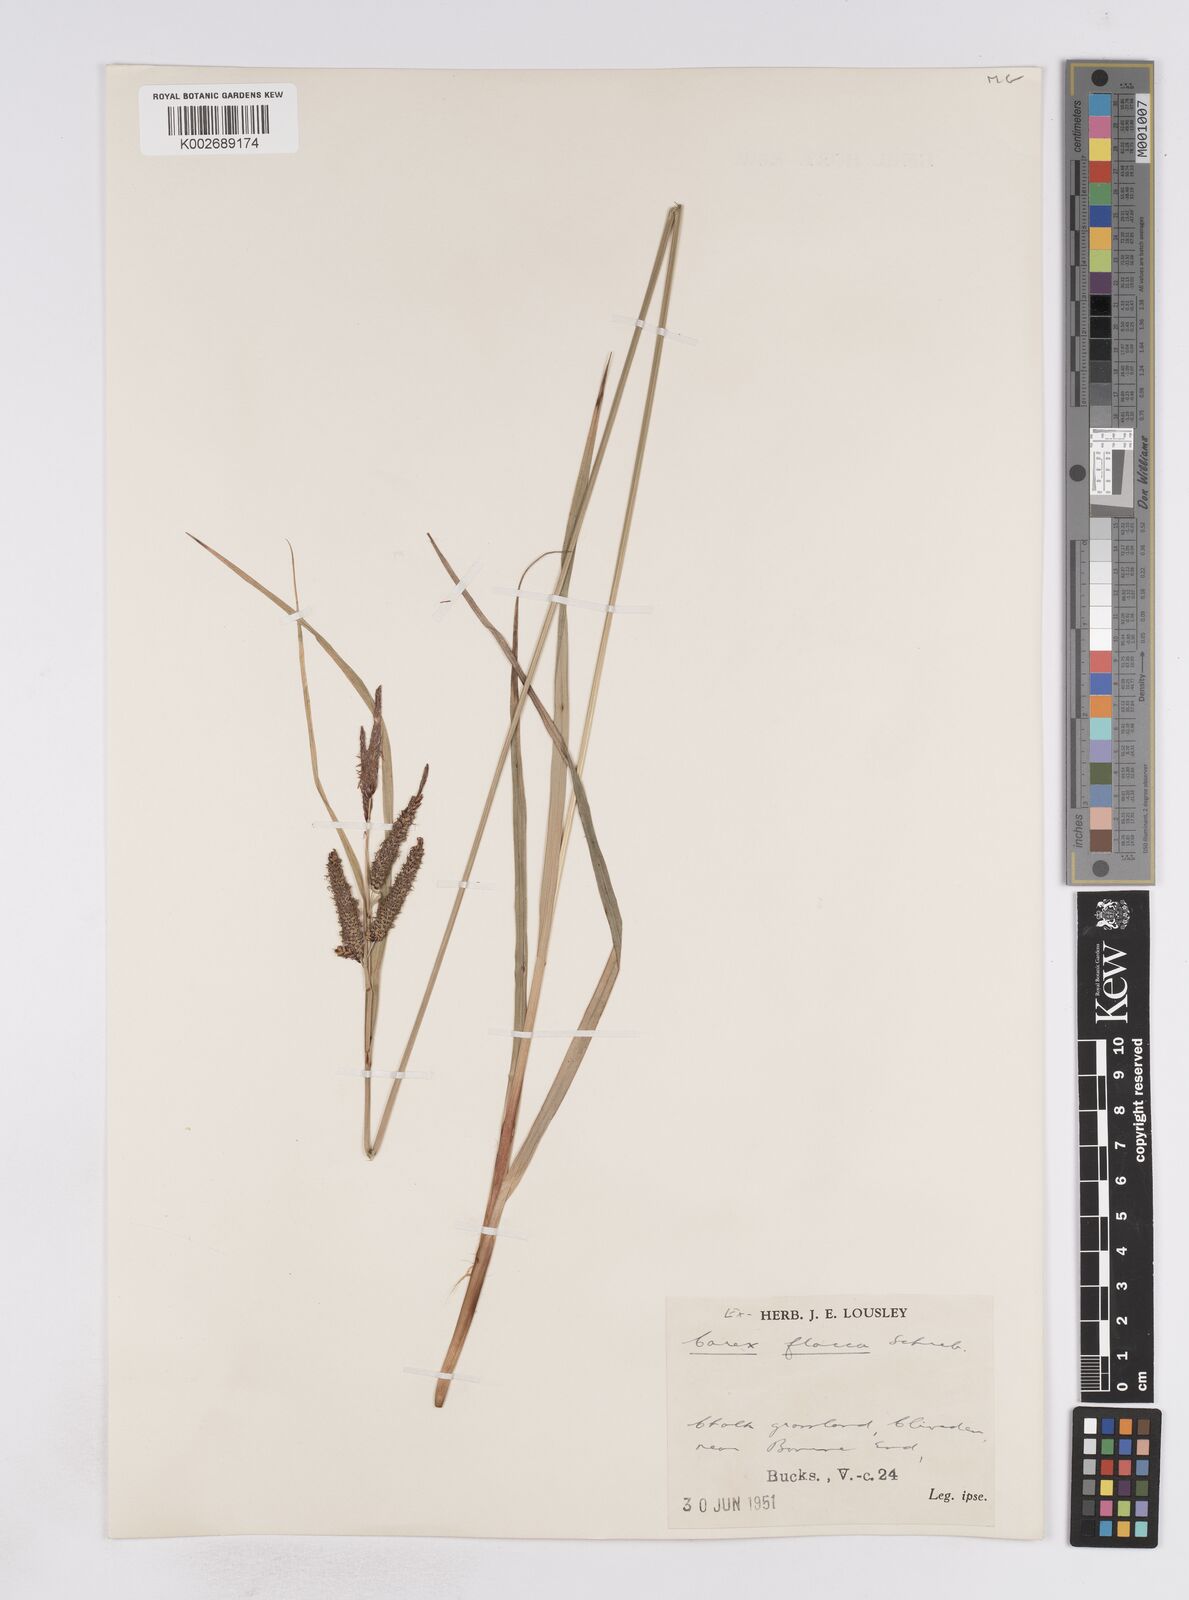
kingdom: Plantae
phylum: Tracheophyta
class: Liliopsida
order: Poales
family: Cyperaceae
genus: Carex
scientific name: Carex flacca
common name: Glaucous sedge
